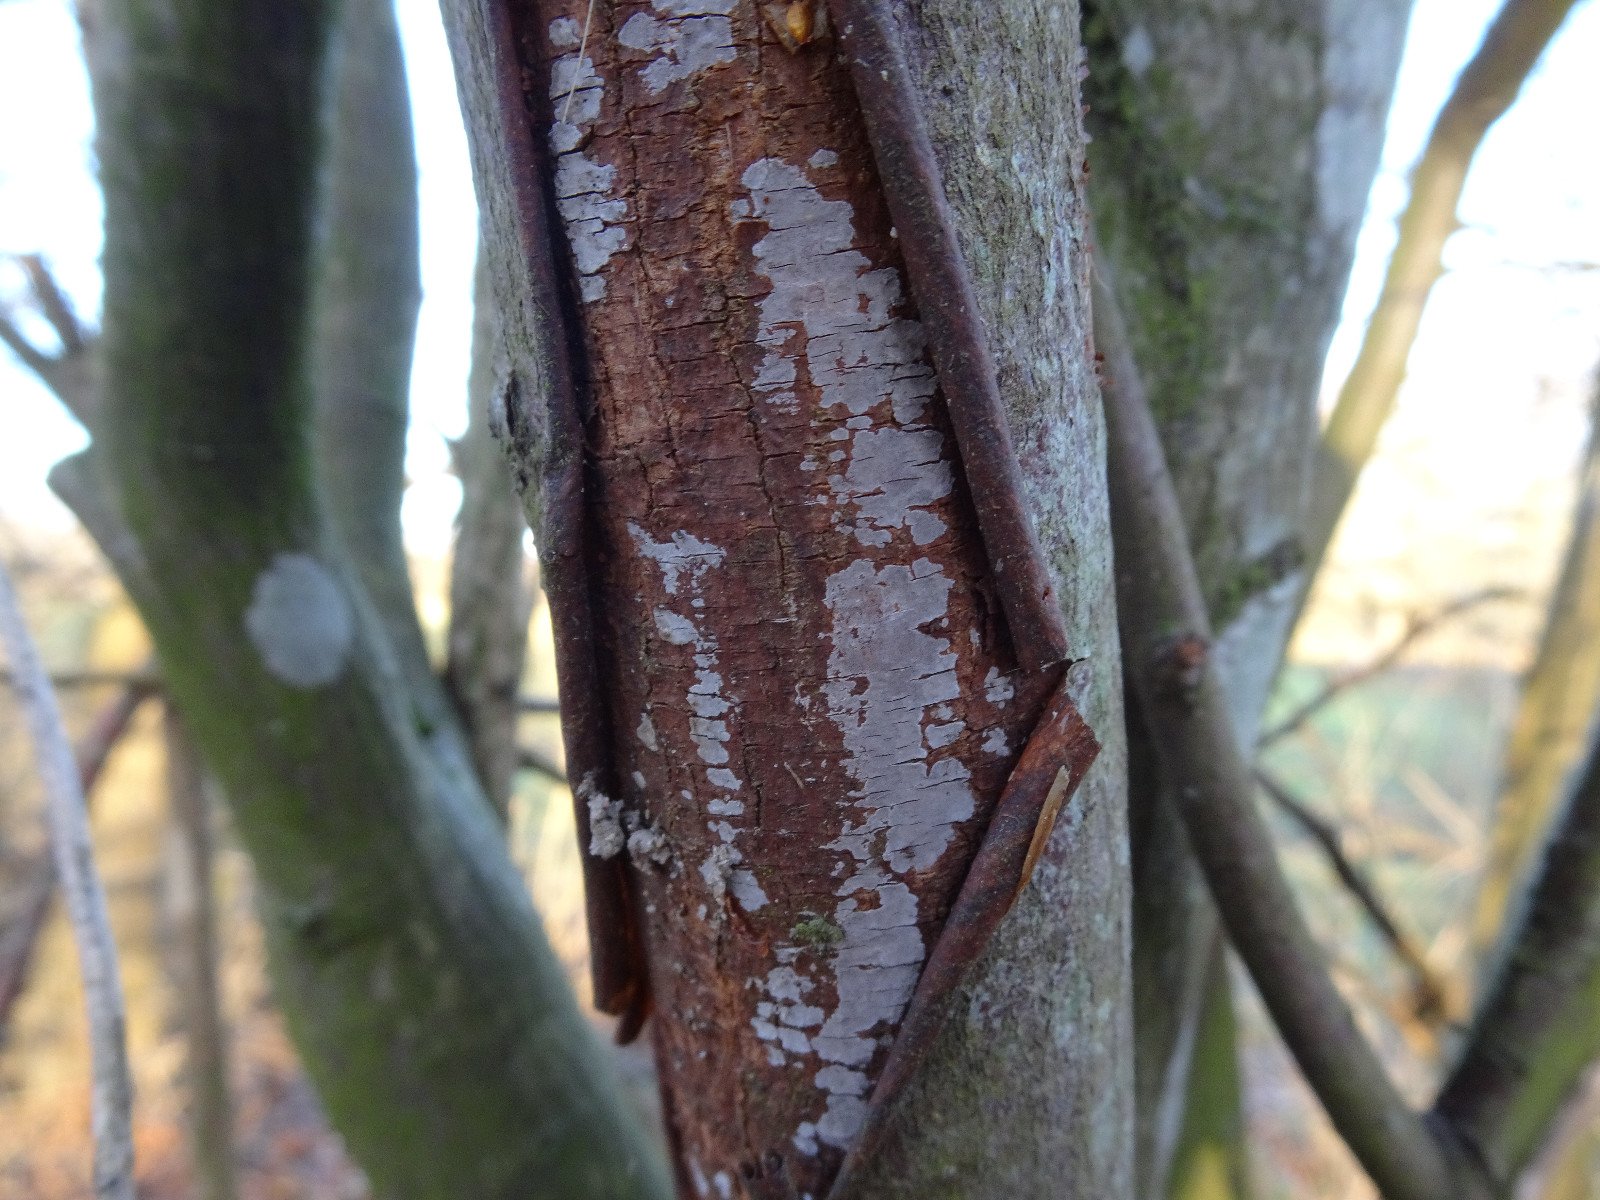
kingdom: Fungi
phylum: Basidiomycota
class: Agaricomycetes
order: Russulales
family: Peniophoraceae
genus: Peniophora
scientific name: Peniophora
